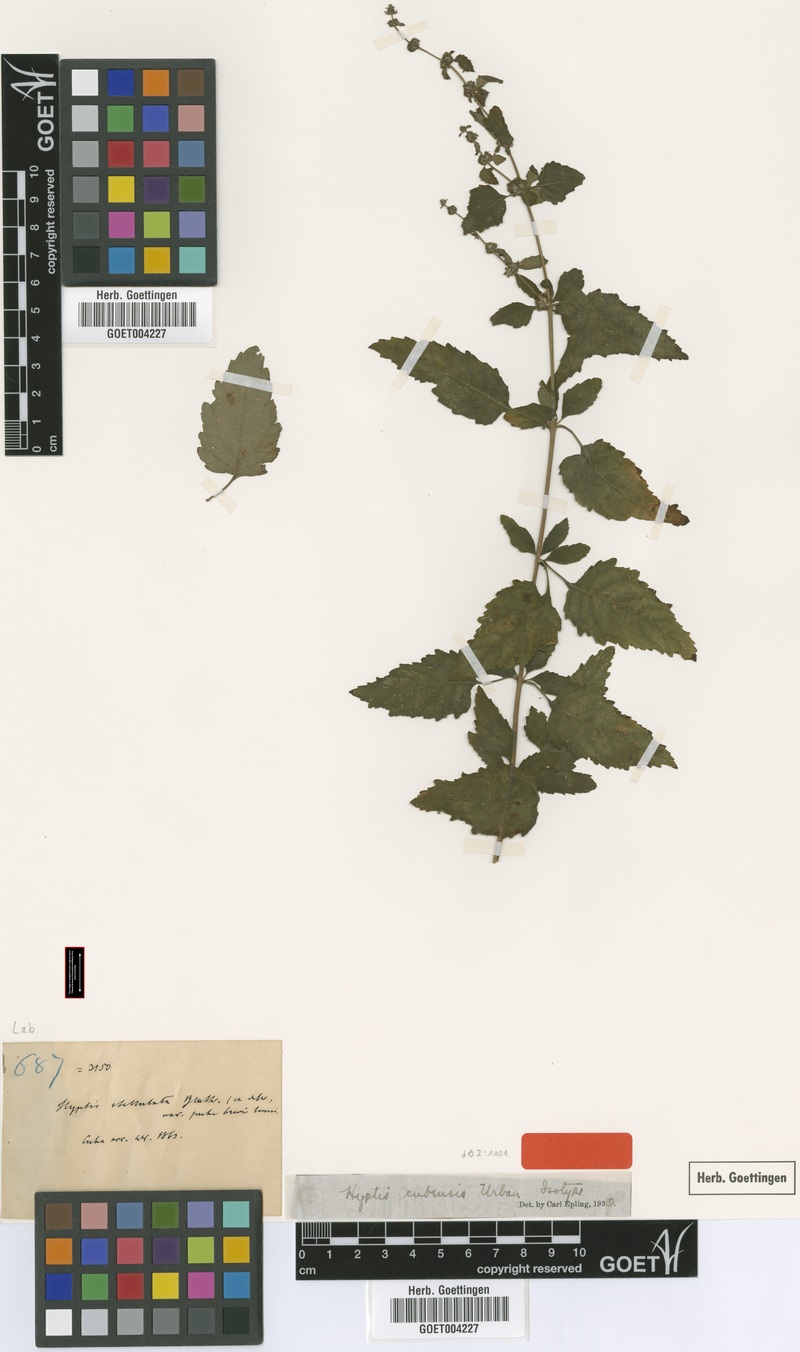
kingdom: Plantae
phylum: Tracheophyta
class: Magnoliopsida
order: Lamiales
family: Lamiaceae
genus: Condea
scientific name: Condea cubensis
